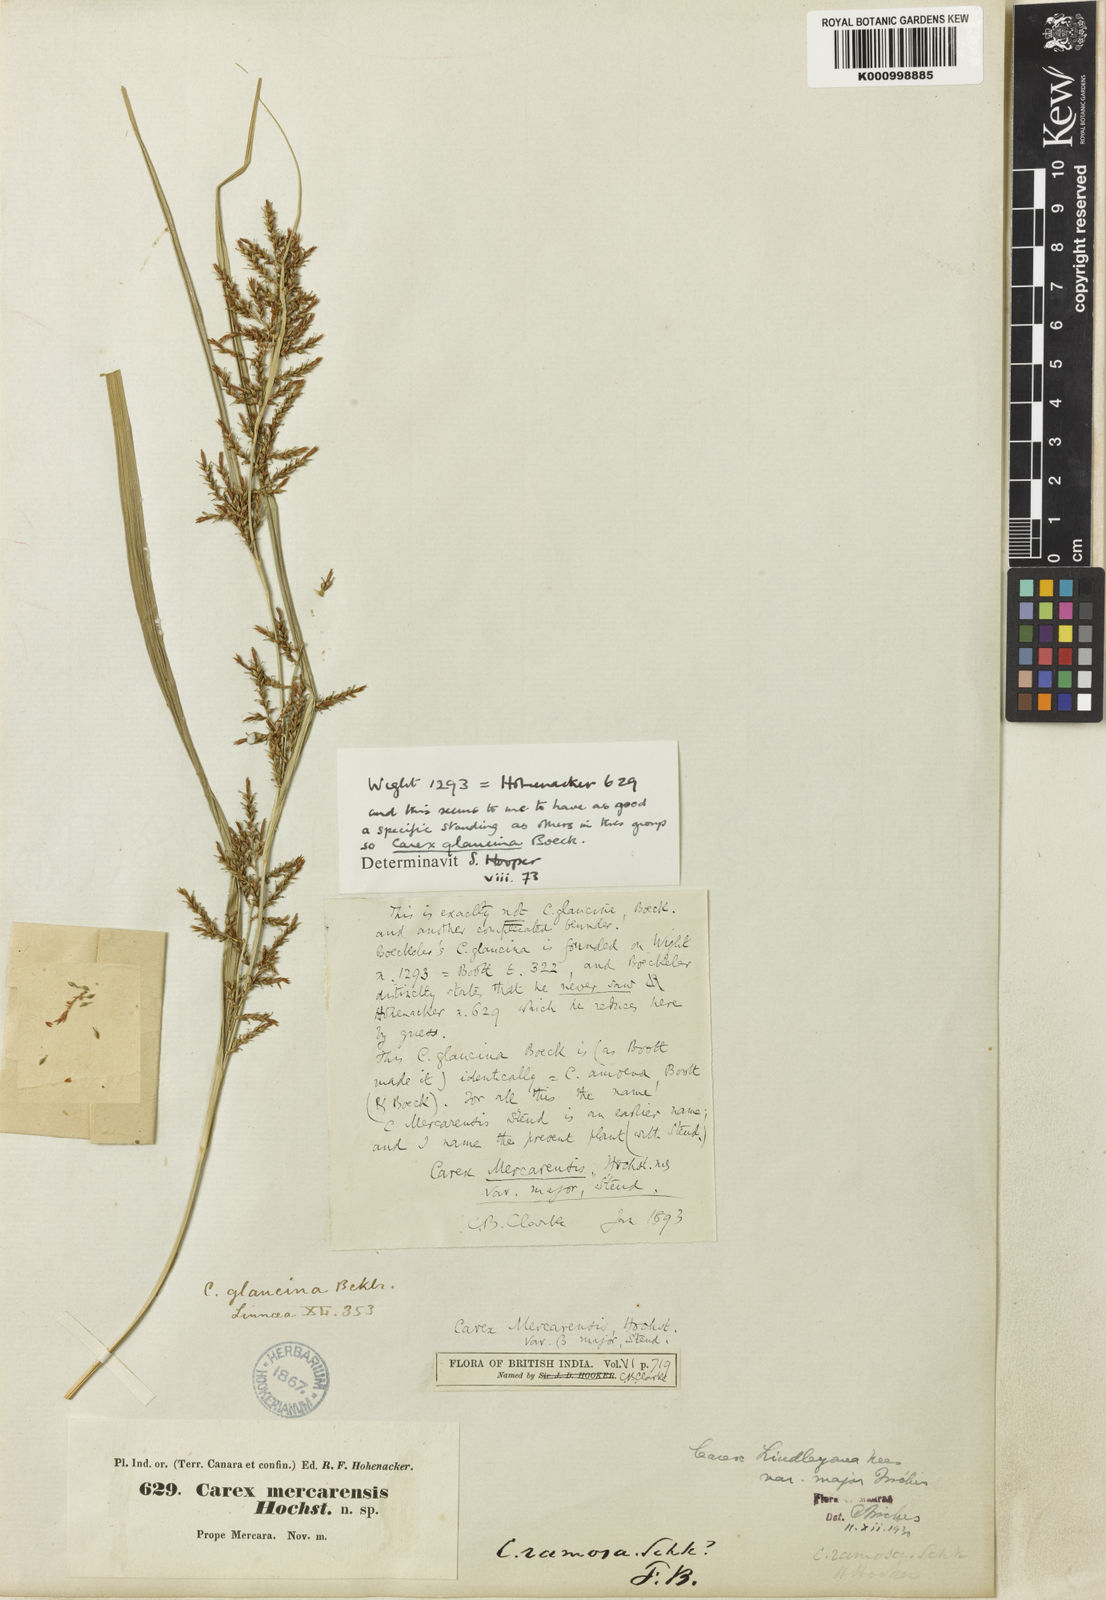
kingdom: Plantae
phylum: Tracheophyta
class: Liliopsida
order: Poales
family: Cyperaceae
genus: Carex
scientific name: Carex filicina
